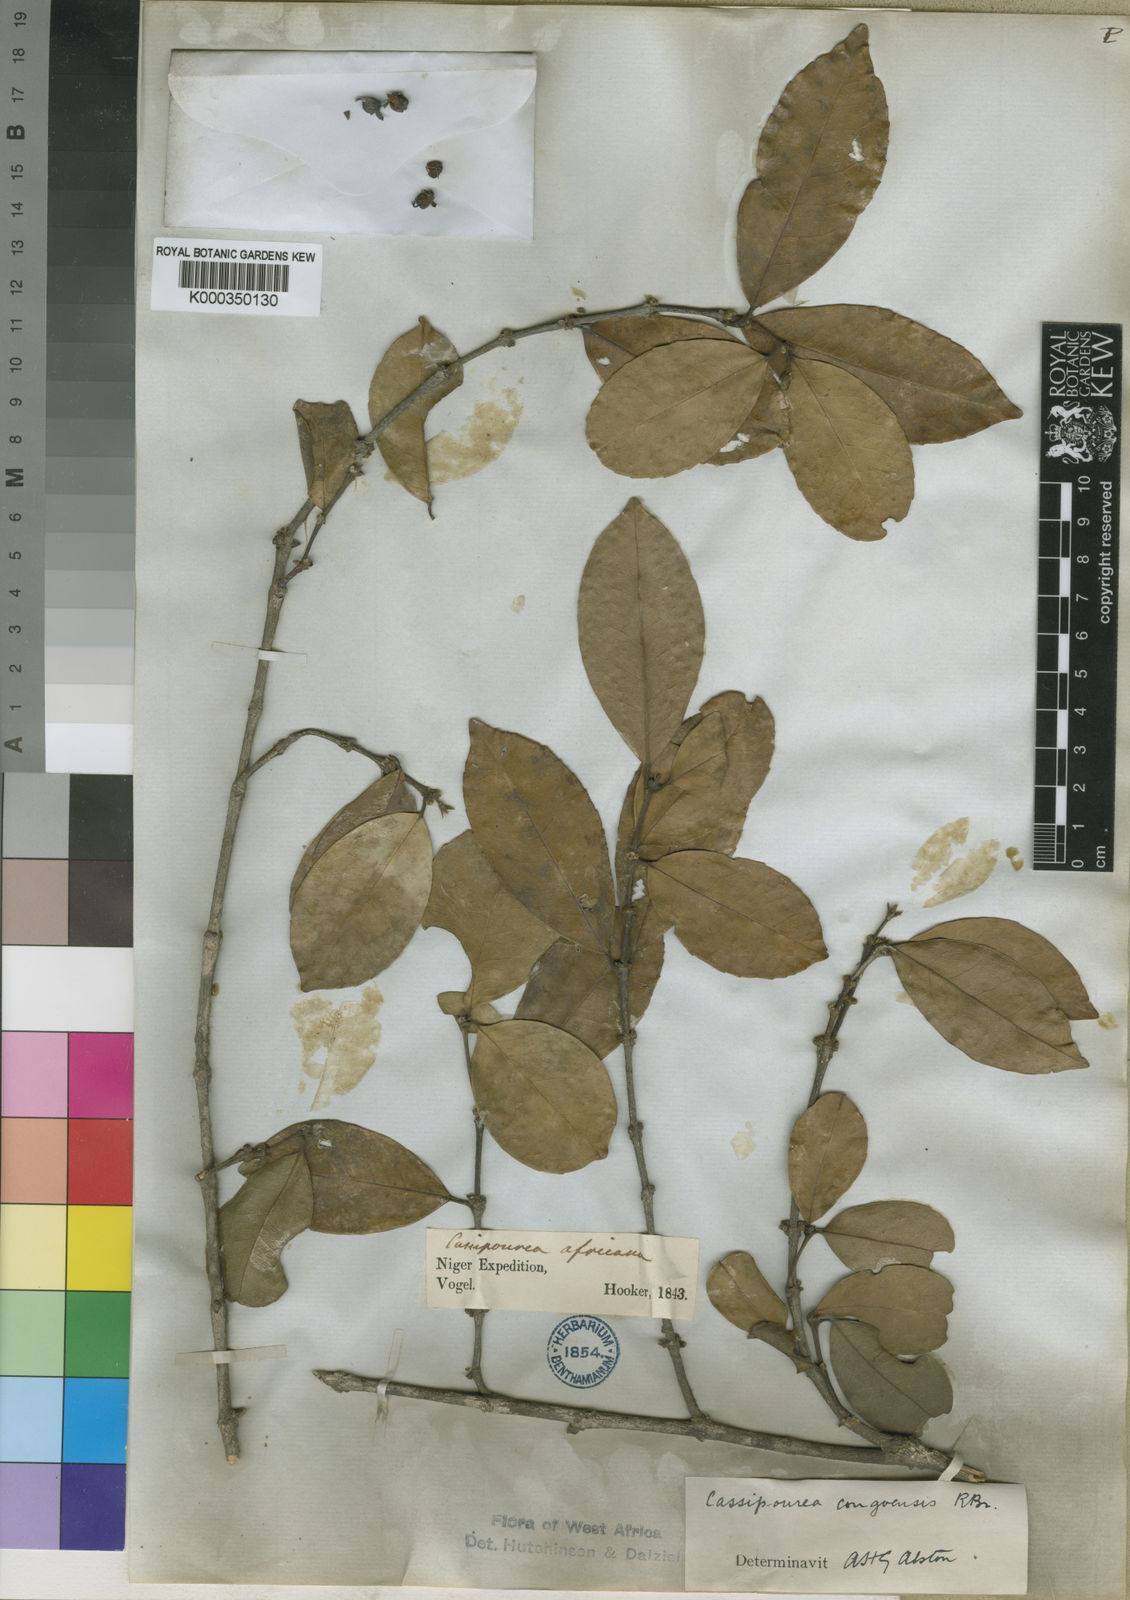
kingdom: Plantae
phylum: Tracheophyta
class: Magnoliopsida
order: Malpighiales
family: Rhizophoraceae
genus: Cassipourea
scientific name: Cassipourea
